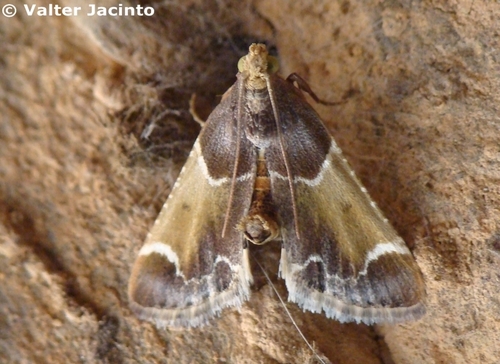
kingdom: Animalia
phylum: Arthropoda
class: Insecta
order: Lepidoptera
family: Pyralidae
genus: Pyralis
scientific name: Pyralis farinalis
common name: Meal moth
